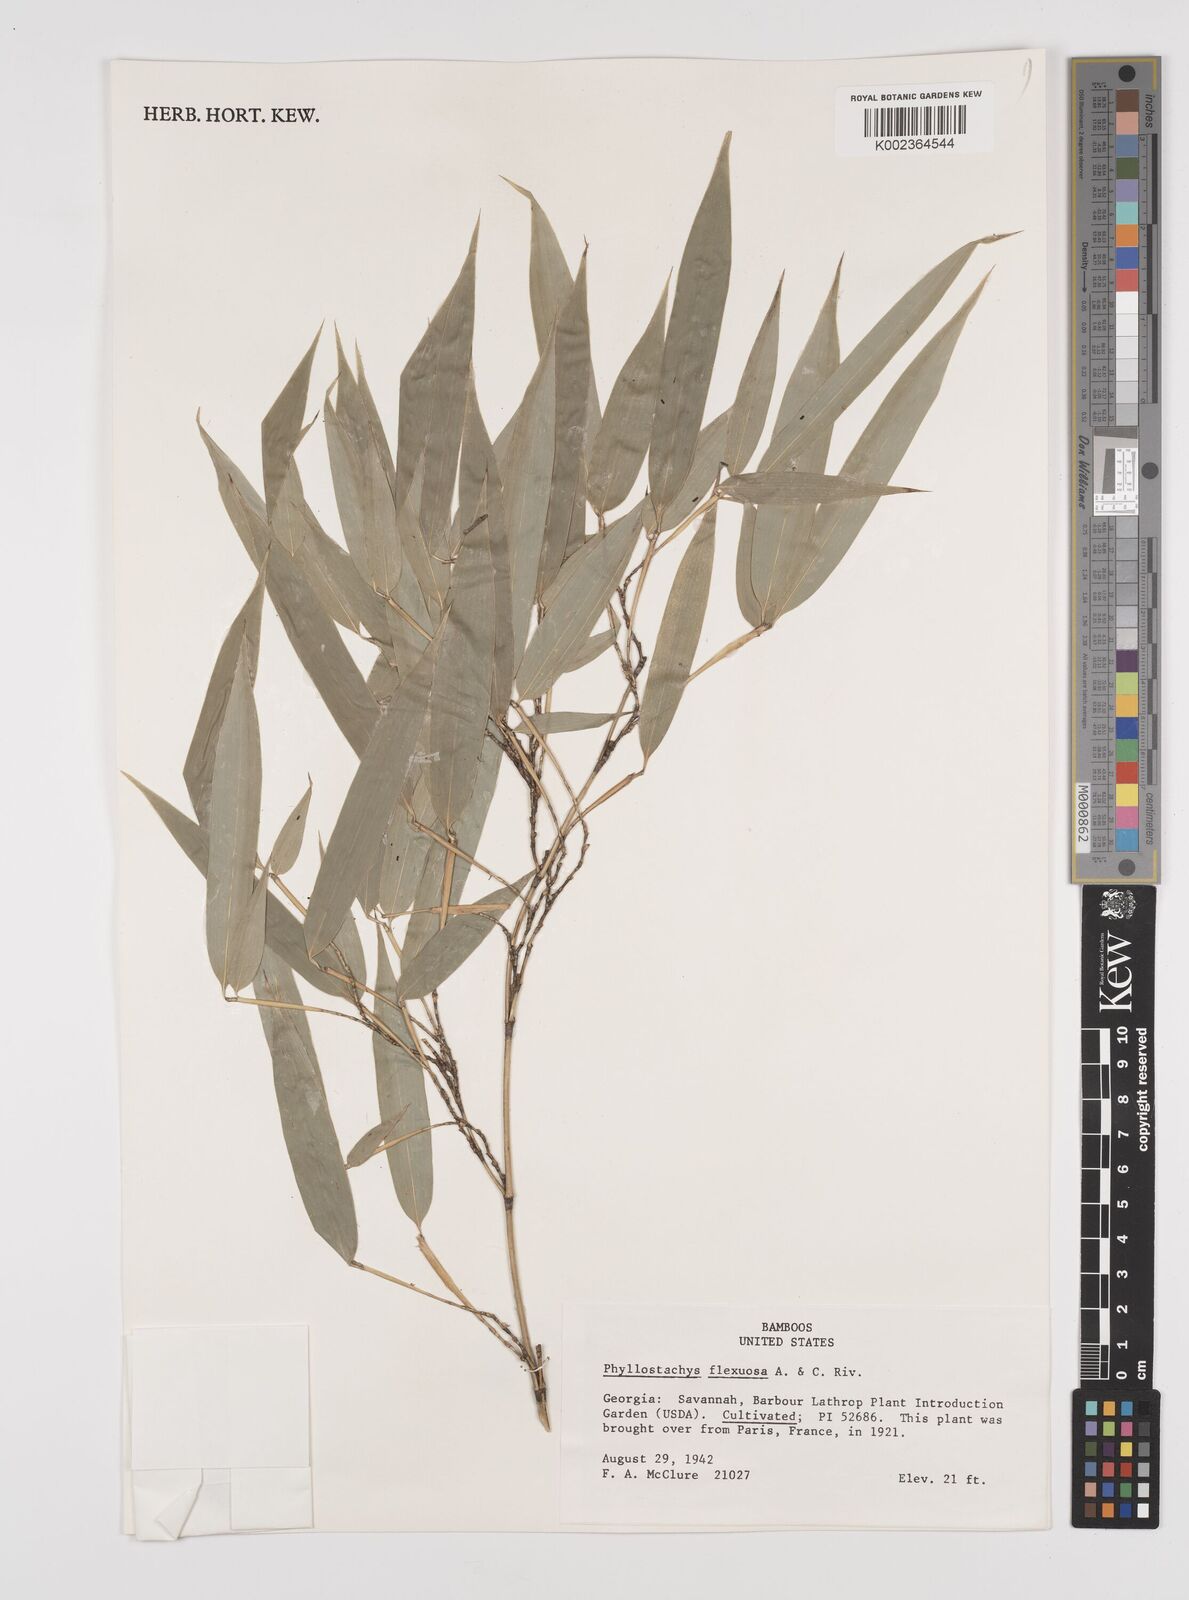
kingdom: Plantae
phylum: Tracheophyta
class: Liliopsida
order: Poales
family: Poaceae
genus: Phyllostachys
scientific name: Phyllostachys flexuosa
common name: Drooping timber bamboo
